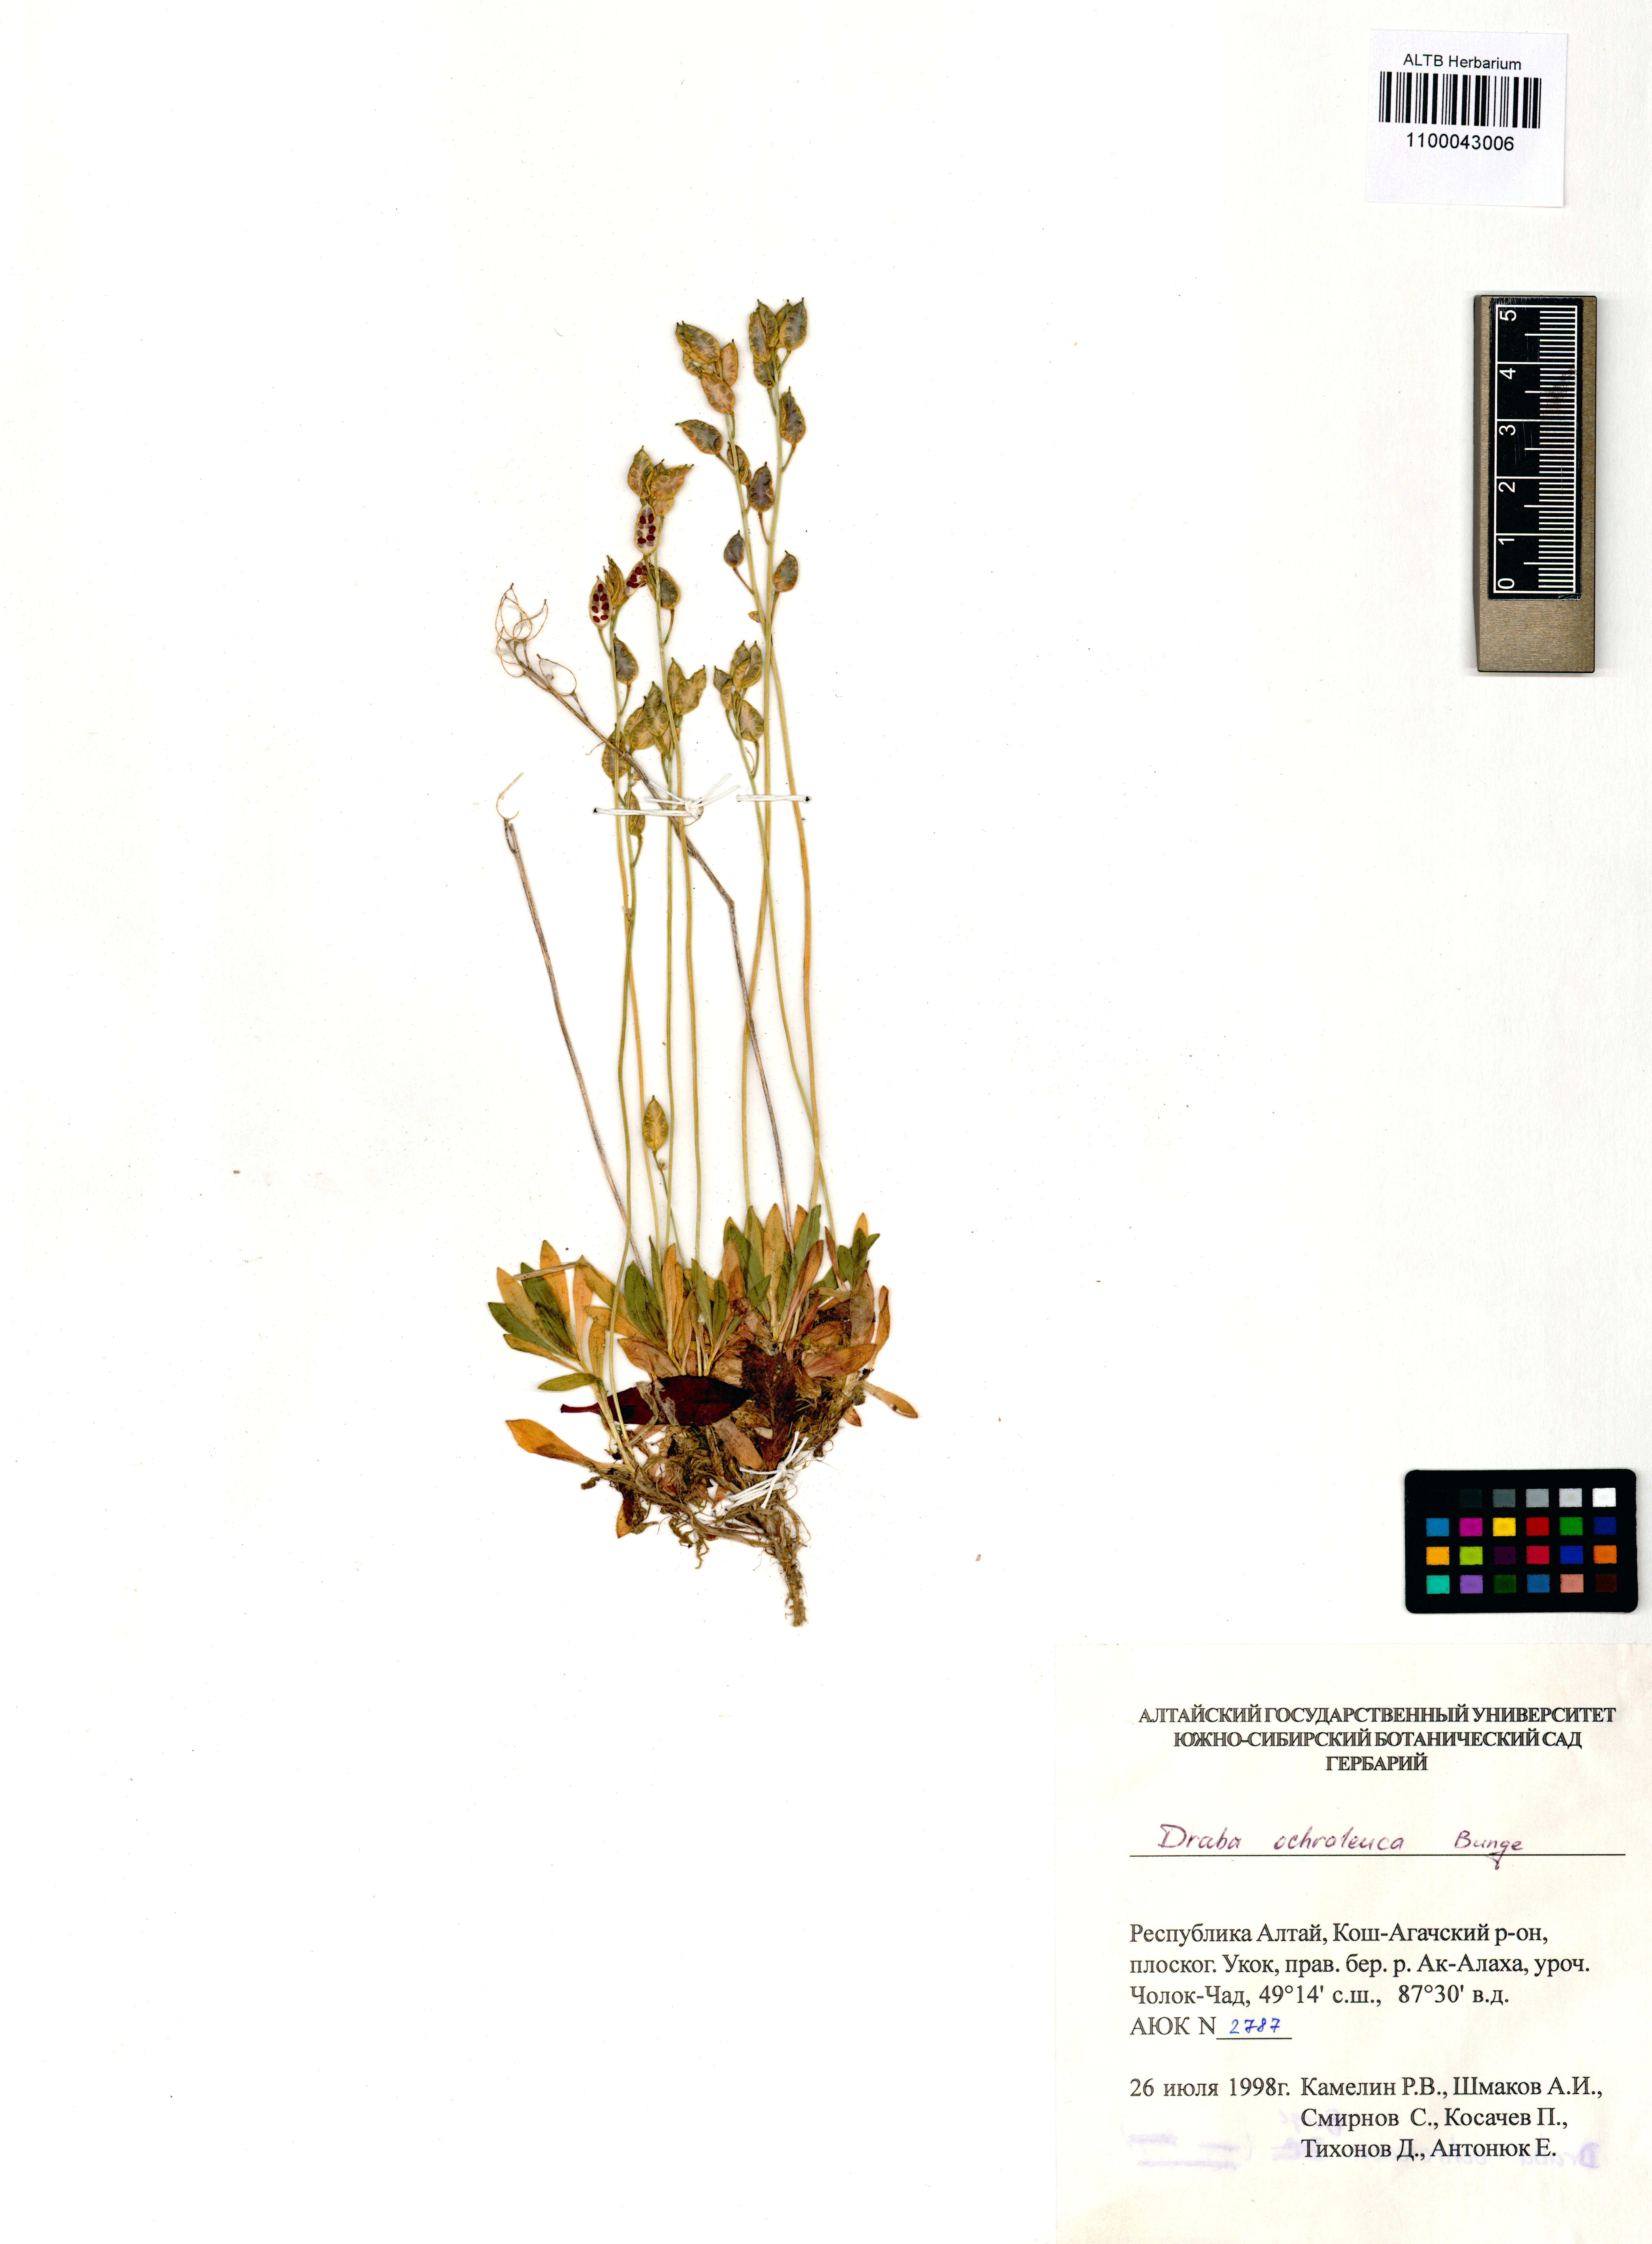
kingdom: Plantae
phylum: Tracheophyta
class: Magnoliopsida
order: Brassicales
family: Brassicaceae
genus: Draba
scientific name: Draba ochroleuca
